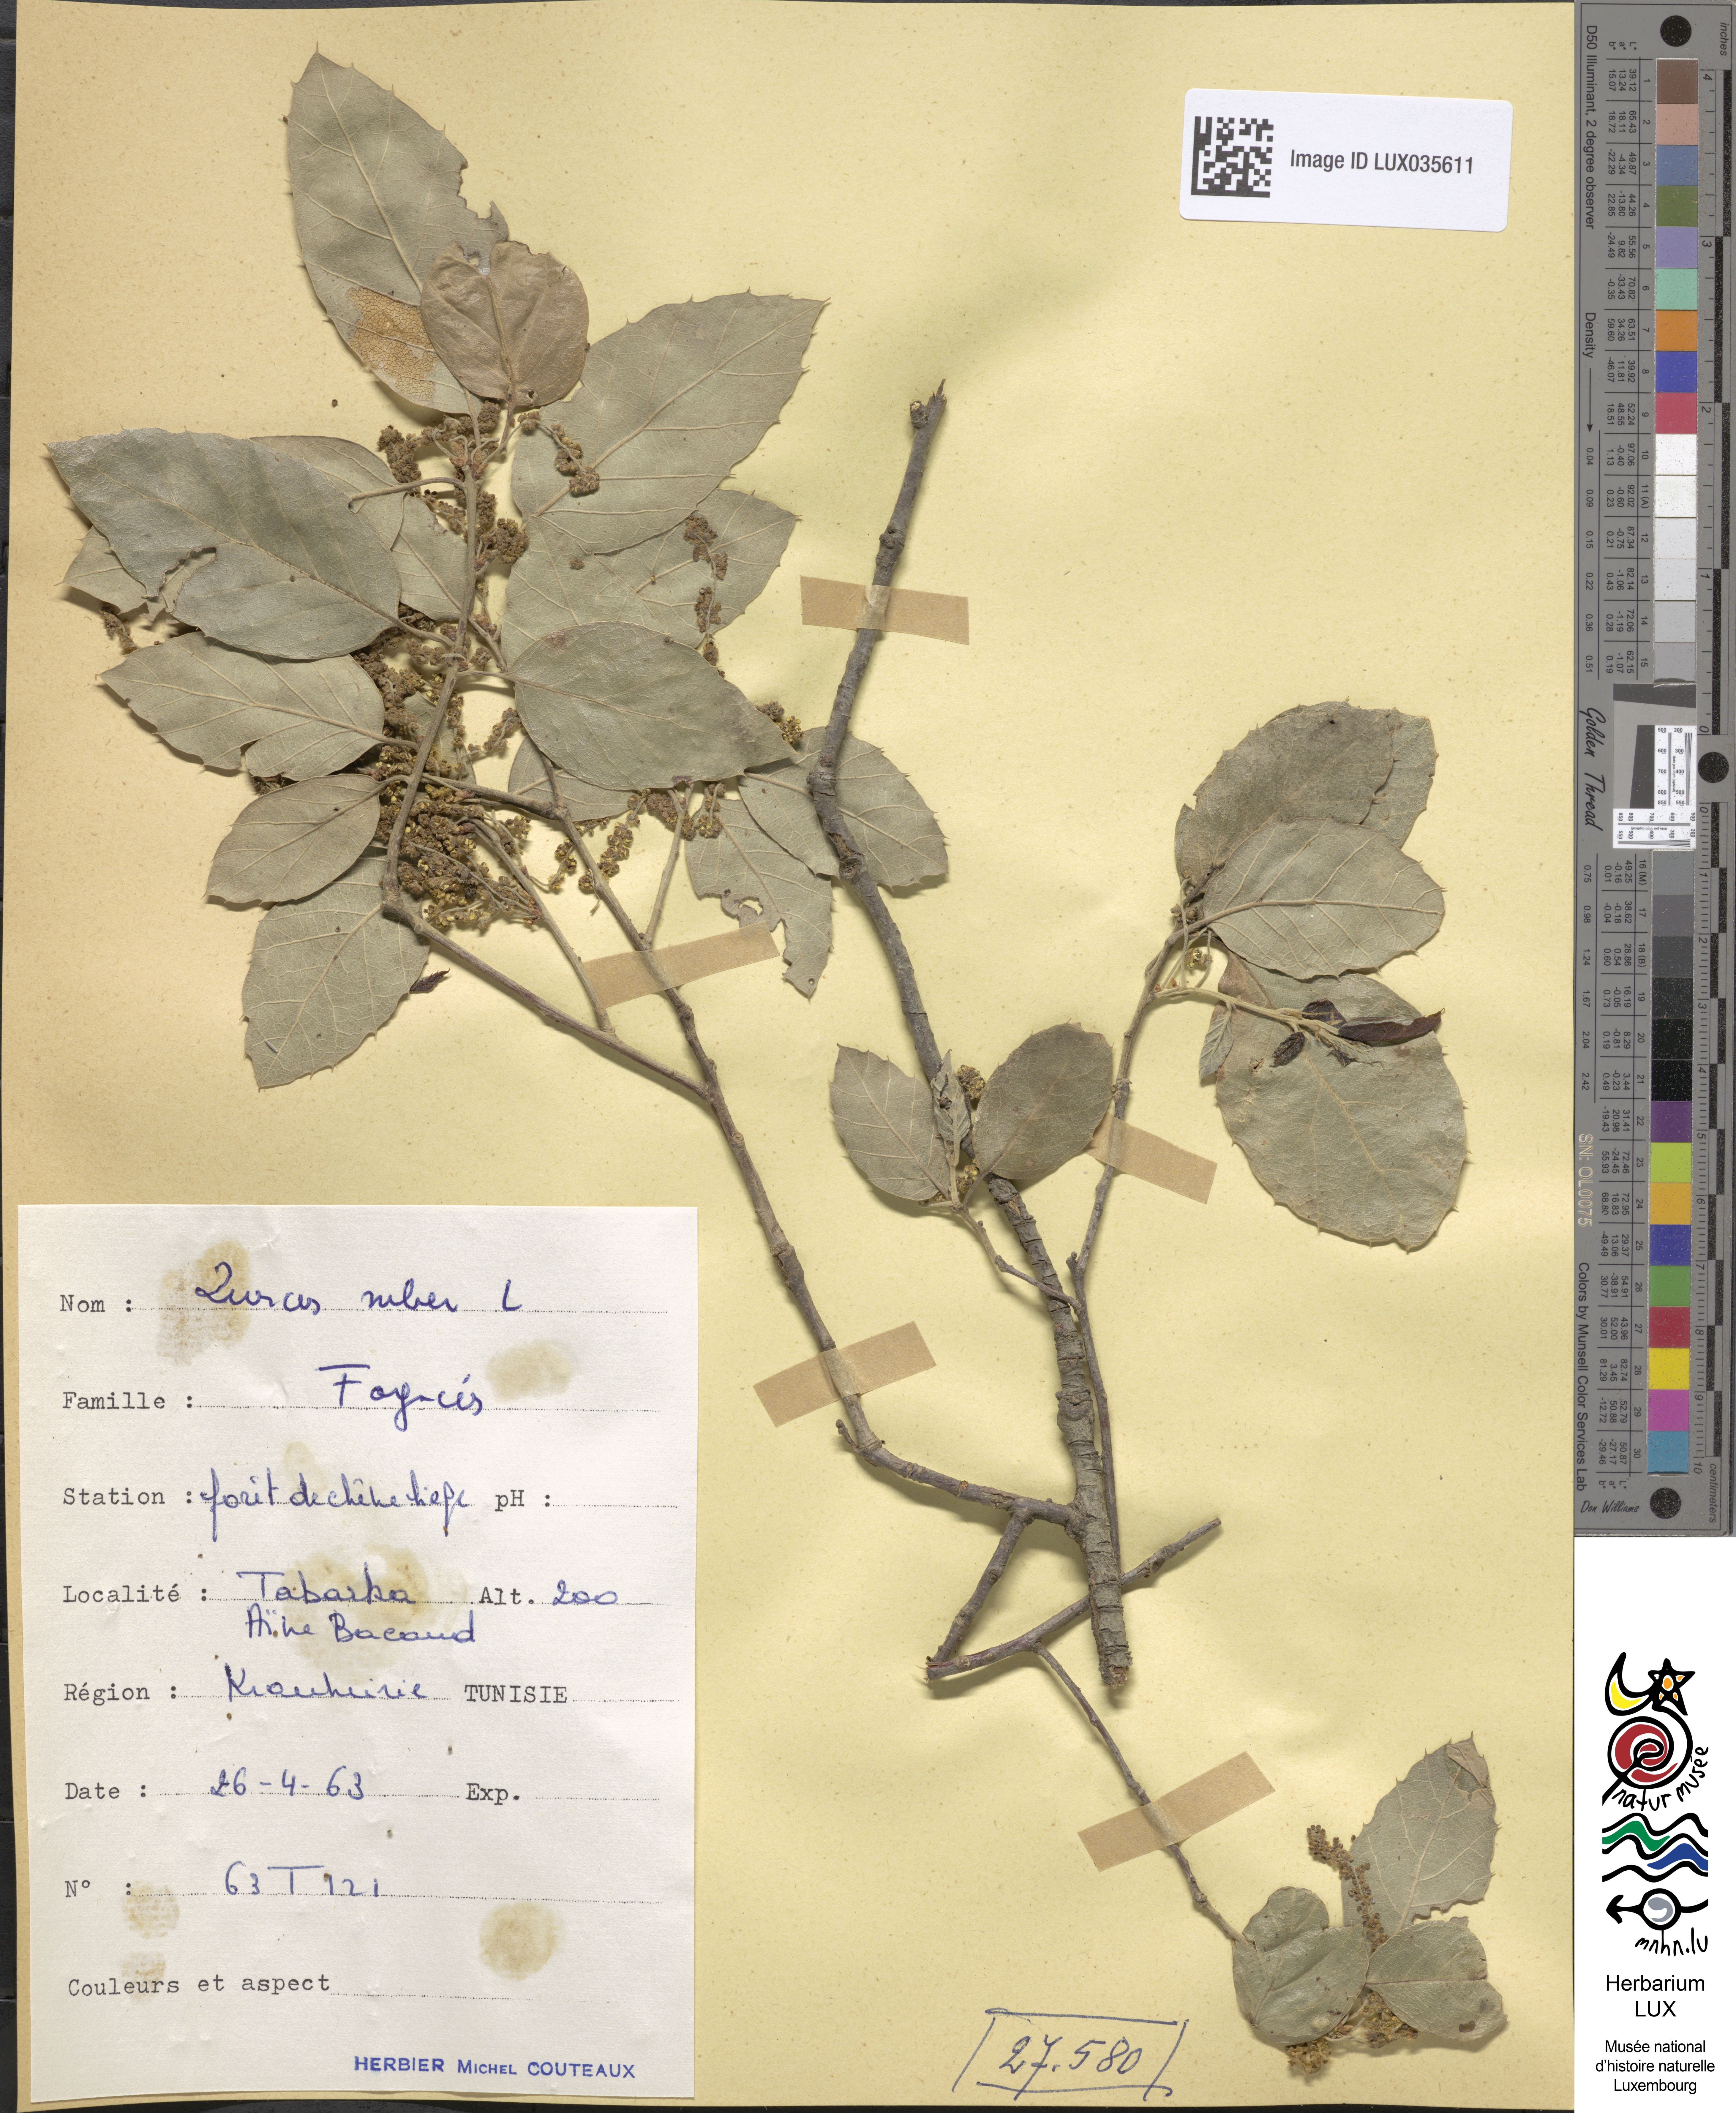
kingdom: Plantae
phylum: Tracheophyta
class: Magnoliopsida
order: Fagales
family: Fagaceae
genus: Quercus
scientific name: Quercus suber
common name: Cork oak
